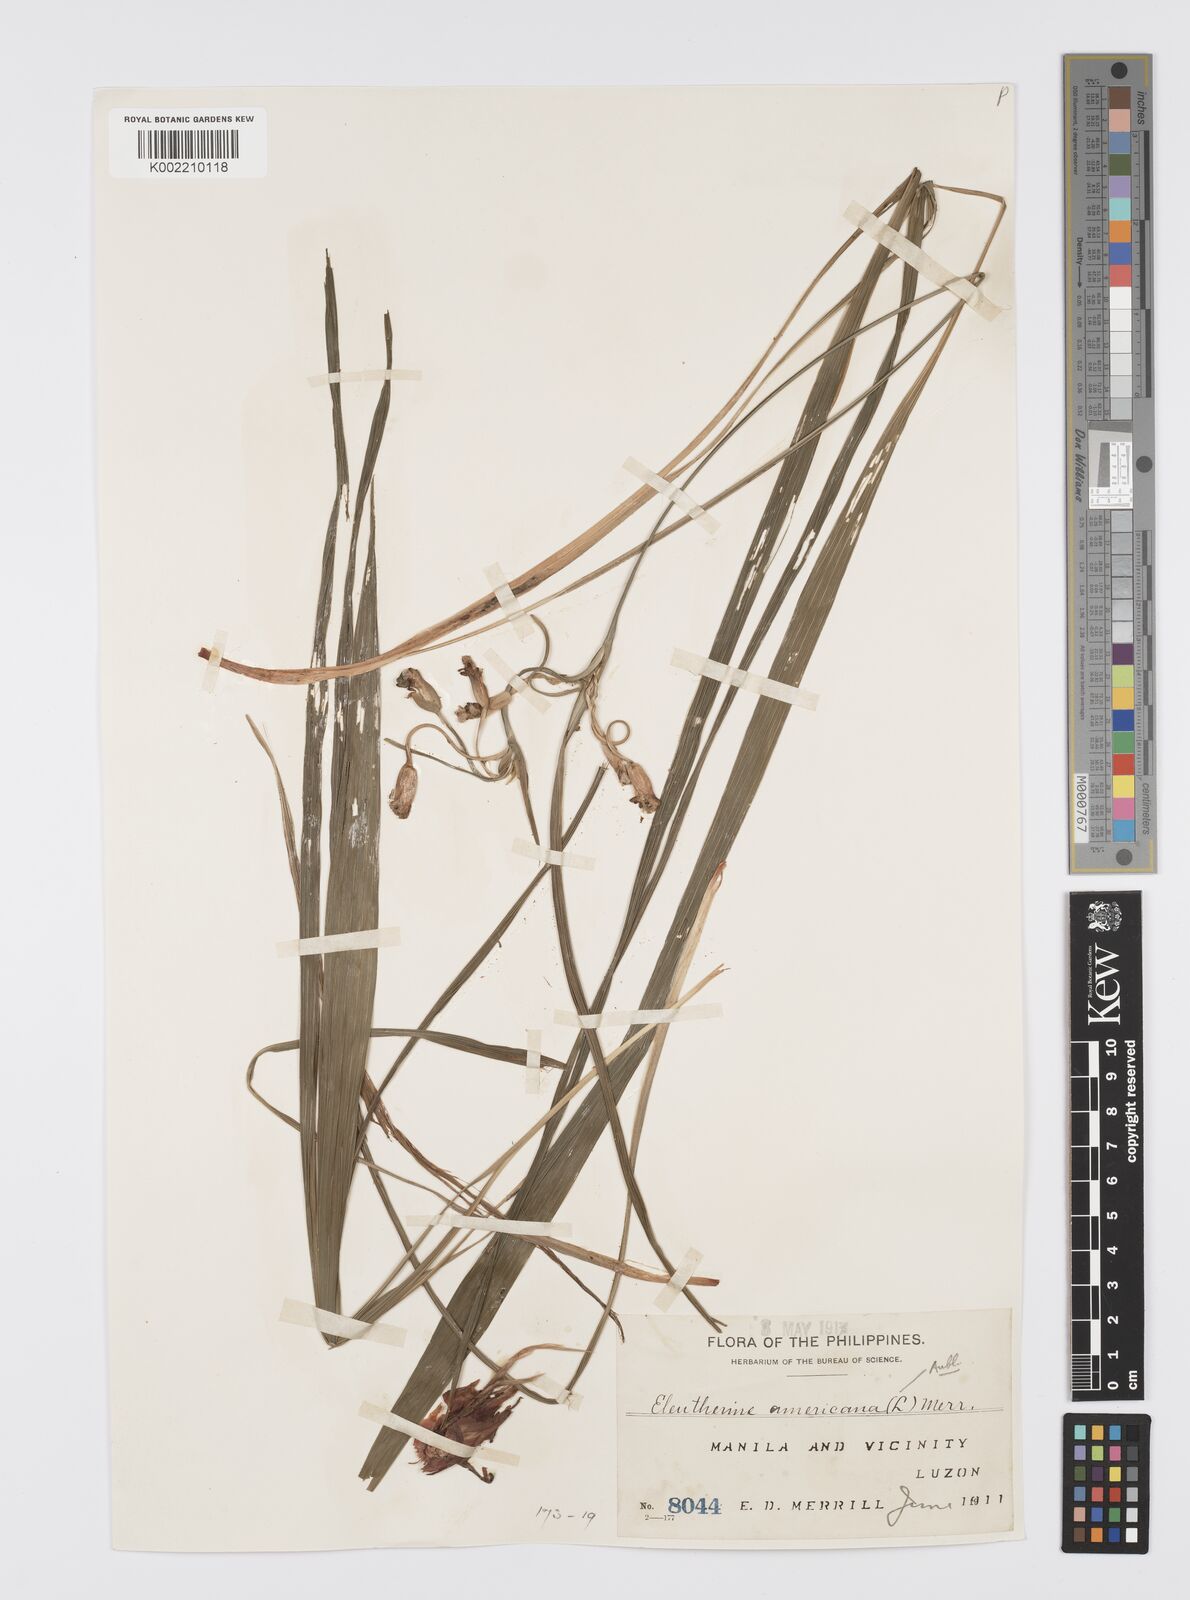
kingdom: Plantae
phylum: Tracheophyta
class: Liliopsida
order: Asparagales
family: Iridaceae
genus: Eleutherine
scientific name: Eleutherine bulbosa
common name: Lagrimas de la virgen
